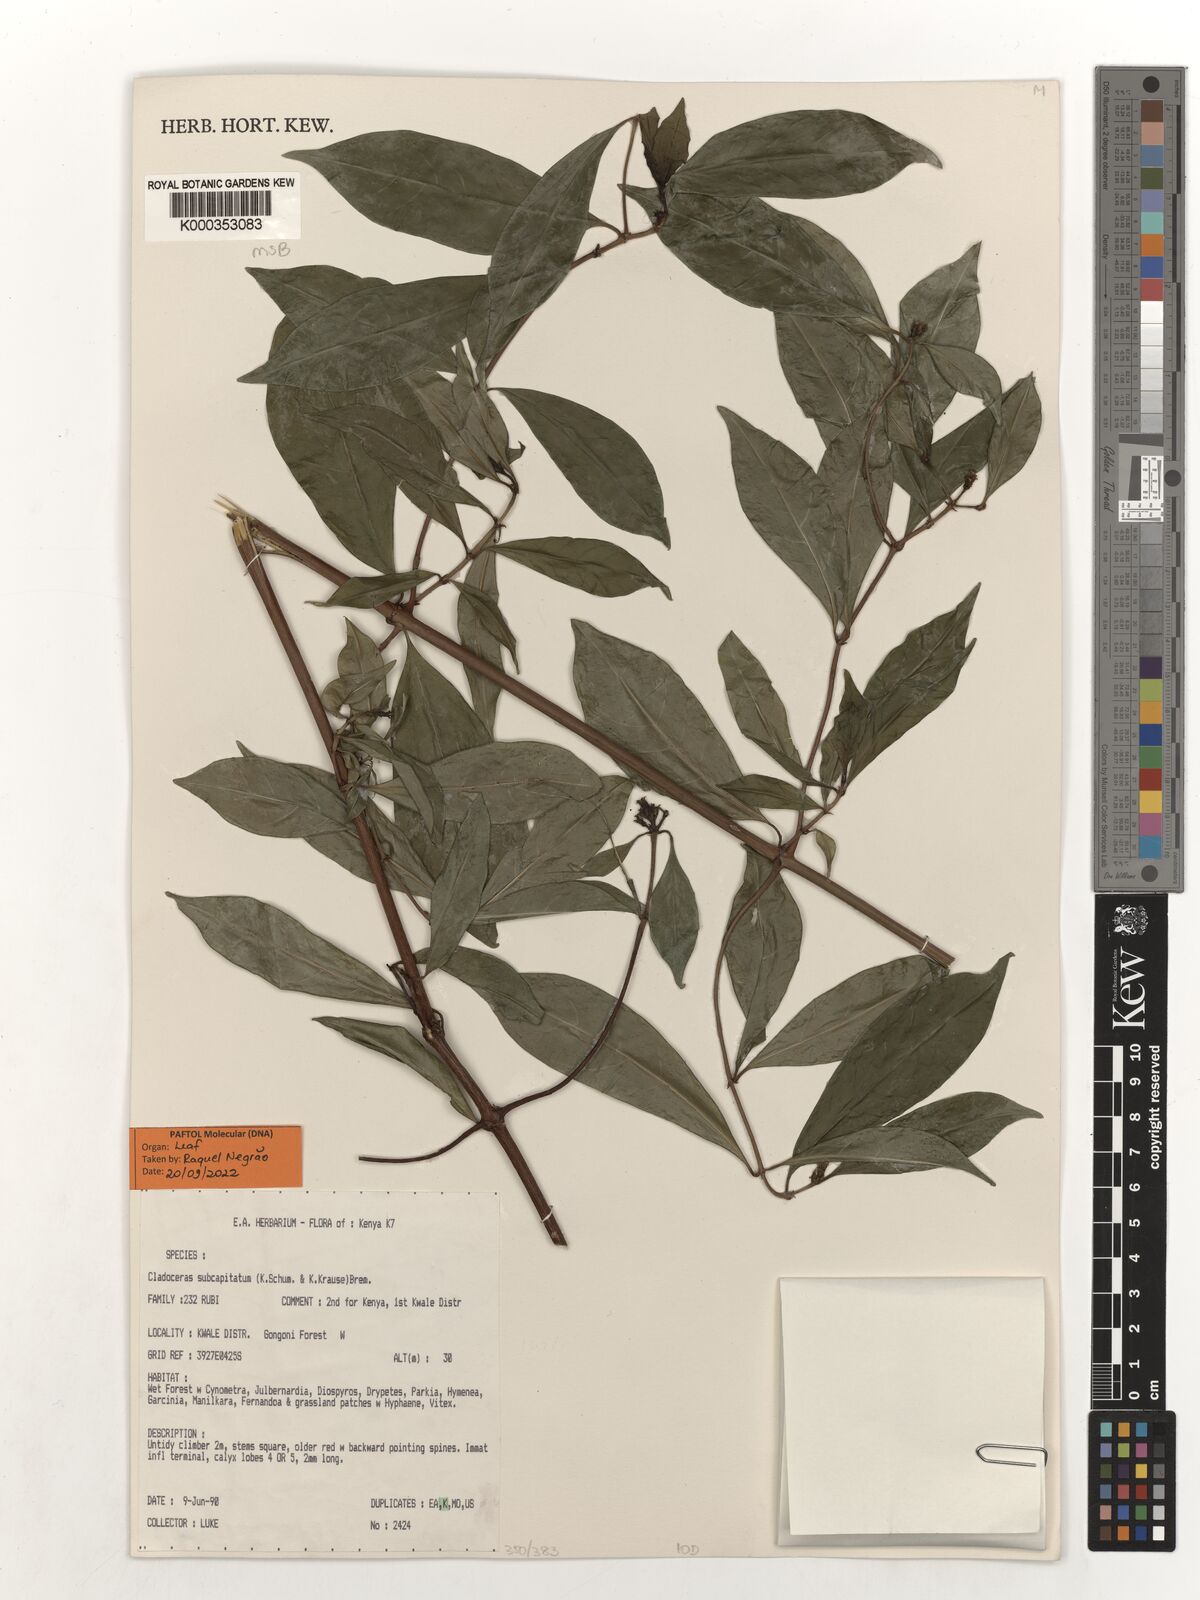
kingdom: Plantae
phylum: Tracheophyta
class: Magnoliopsida
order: Gentianales
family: Rubiaceae
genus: Cladoceras
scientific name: Cladoceras subcapitatum
